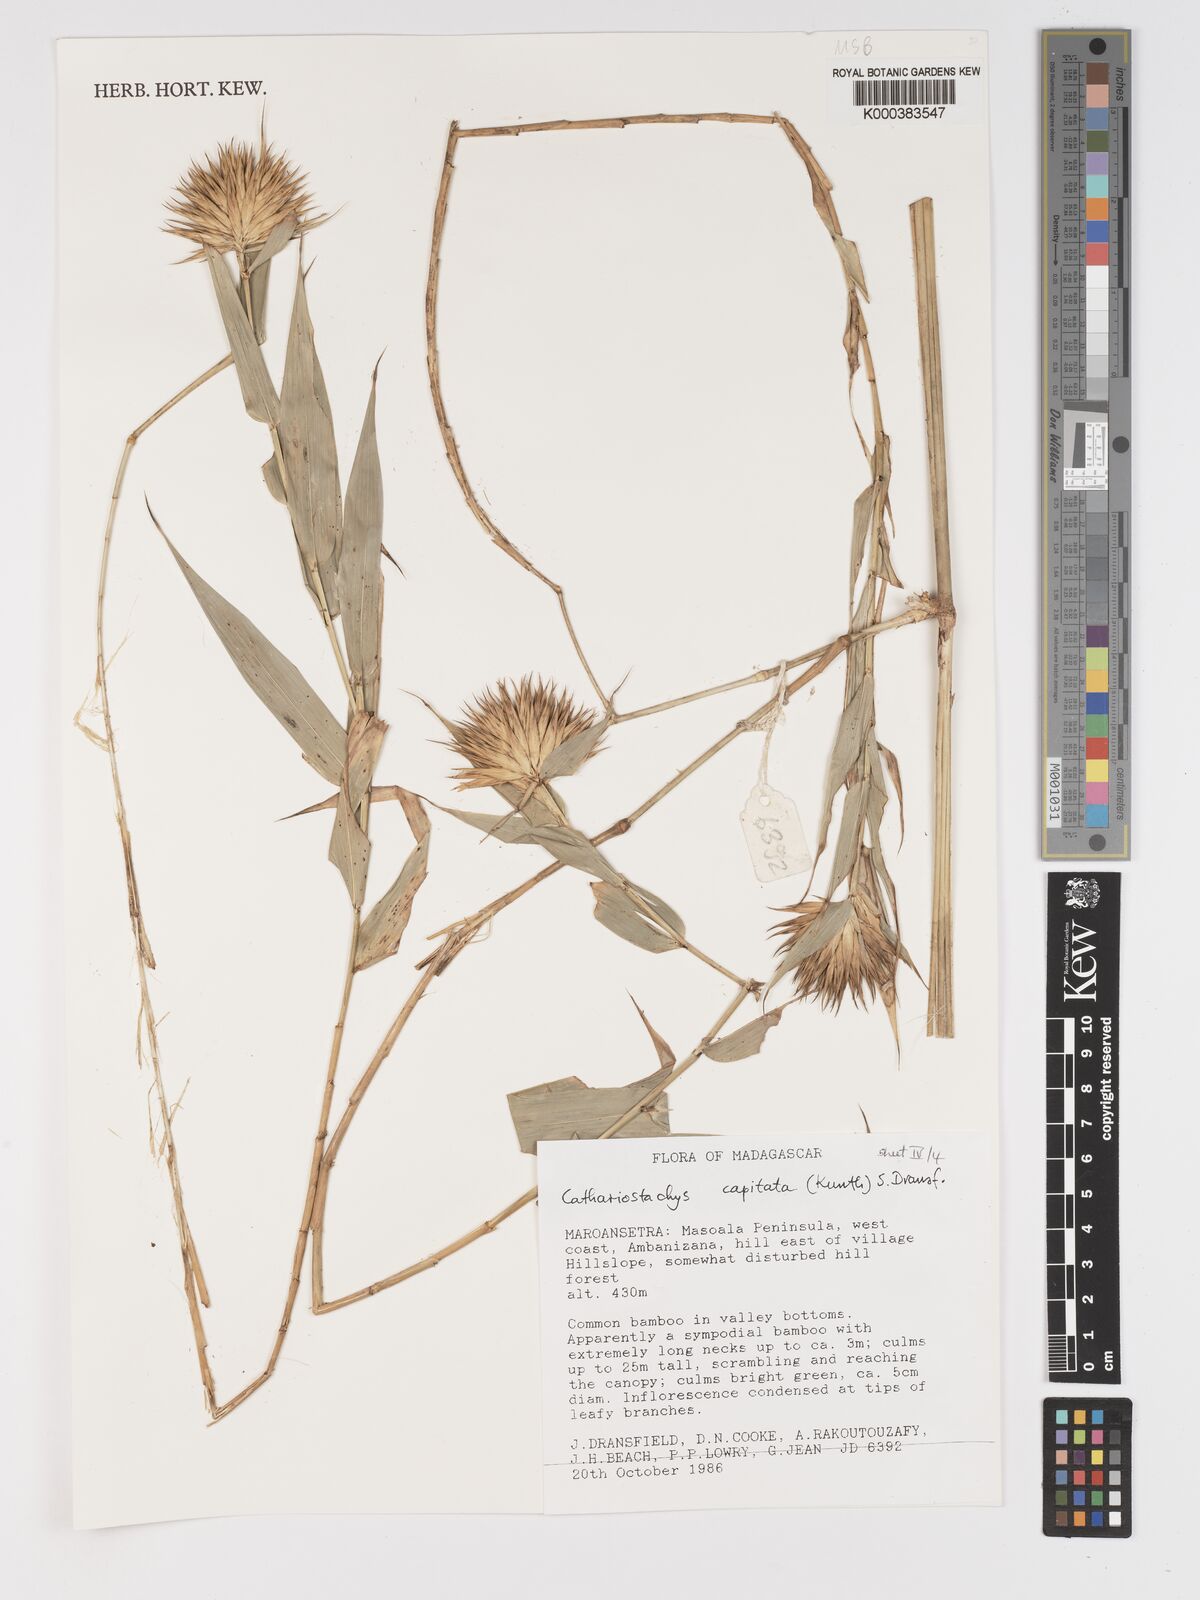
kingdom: Plantae
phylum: Tracheophyta
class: Liliopsida
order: Poales
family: Poaceae
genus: Cathariostachys
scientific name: Cathariostachys capitata
